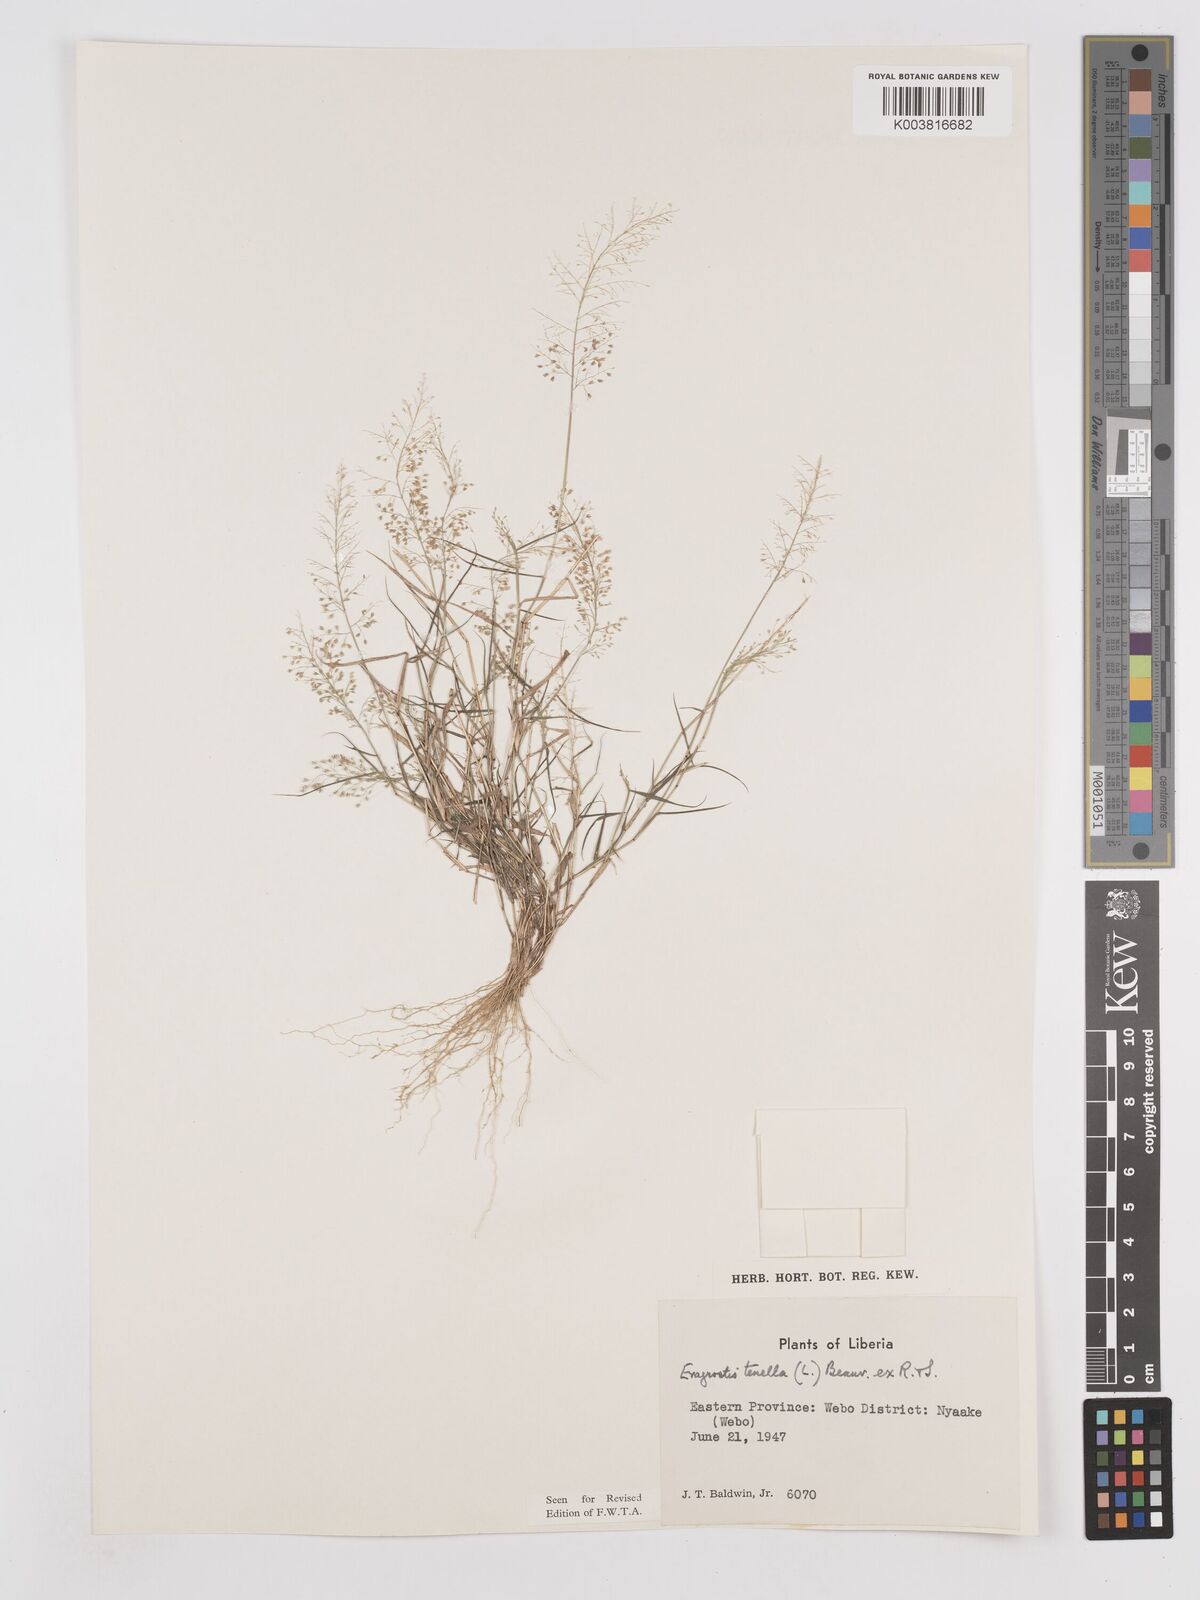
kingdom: Plantae
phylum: Tracheophyta
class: Liliopsida
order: Poales
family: Poaceae
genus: Eragrostis
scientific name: Eragrostis tenella
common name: Japanese lovegrass
